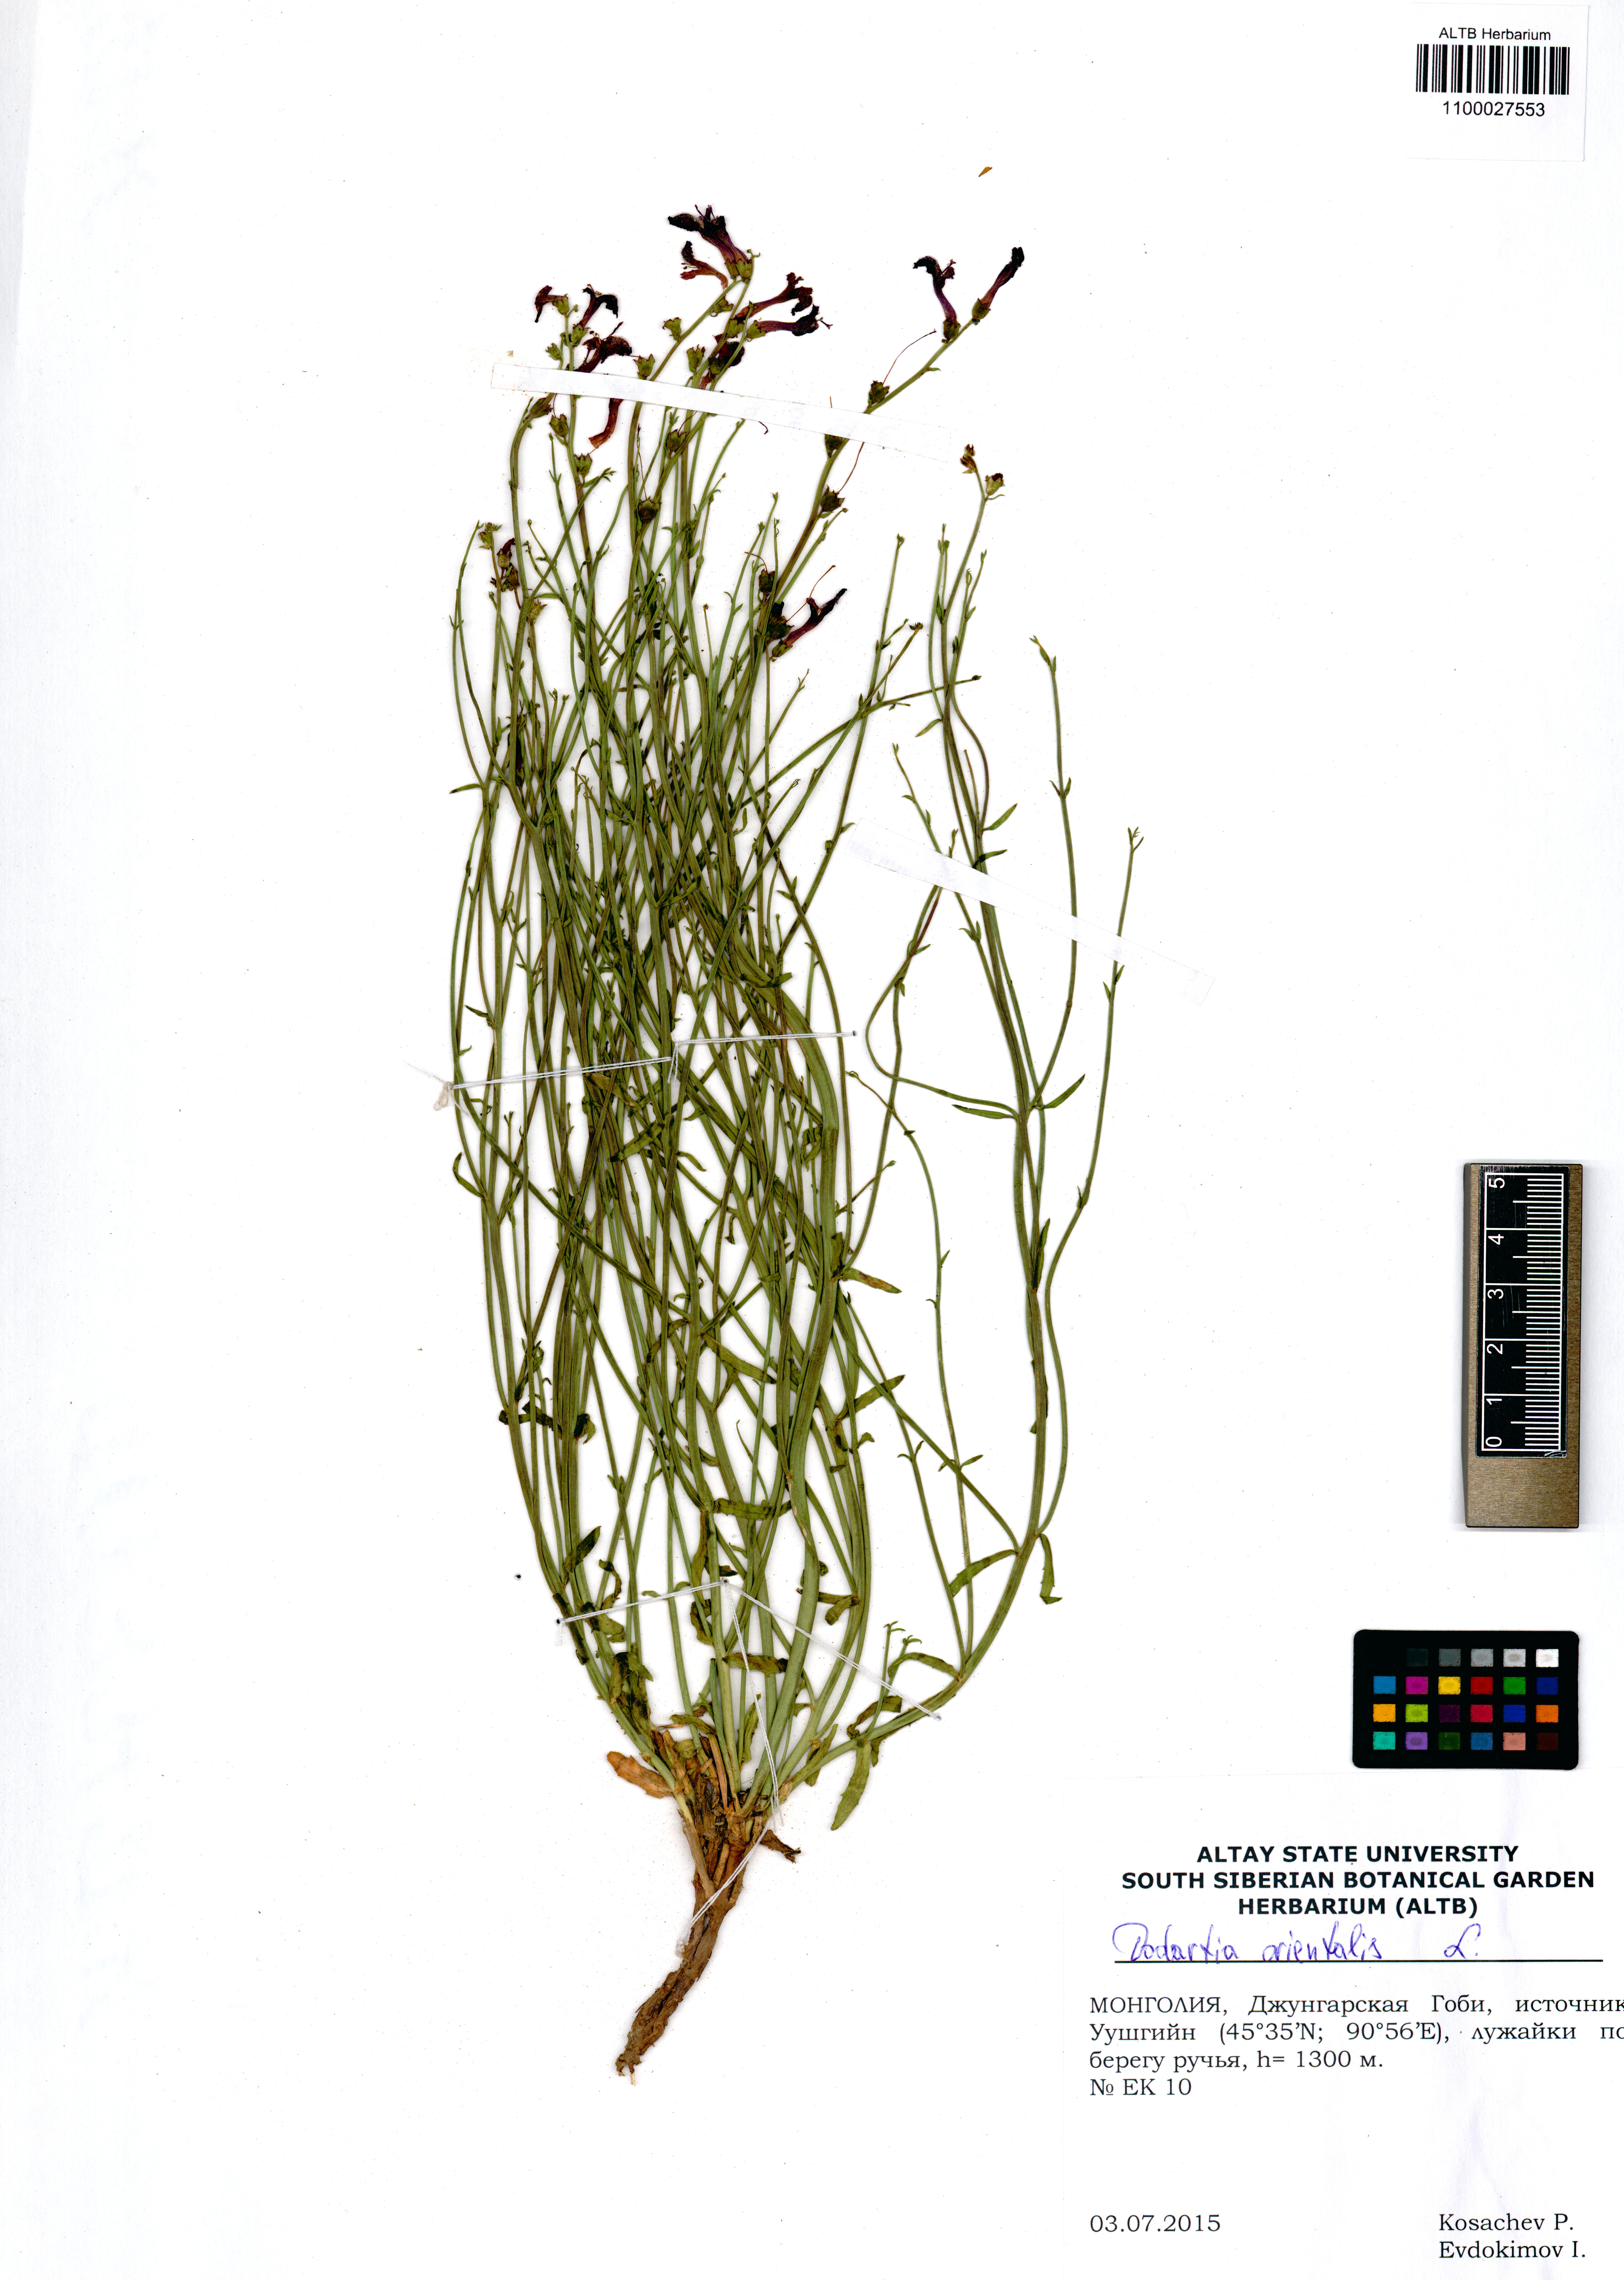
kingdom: Plantae
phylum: Tracheophyta
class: Magnoliopsida
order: Lamiales
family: Mazaceae
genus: Dodartia
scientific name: Dodartia orientalis
